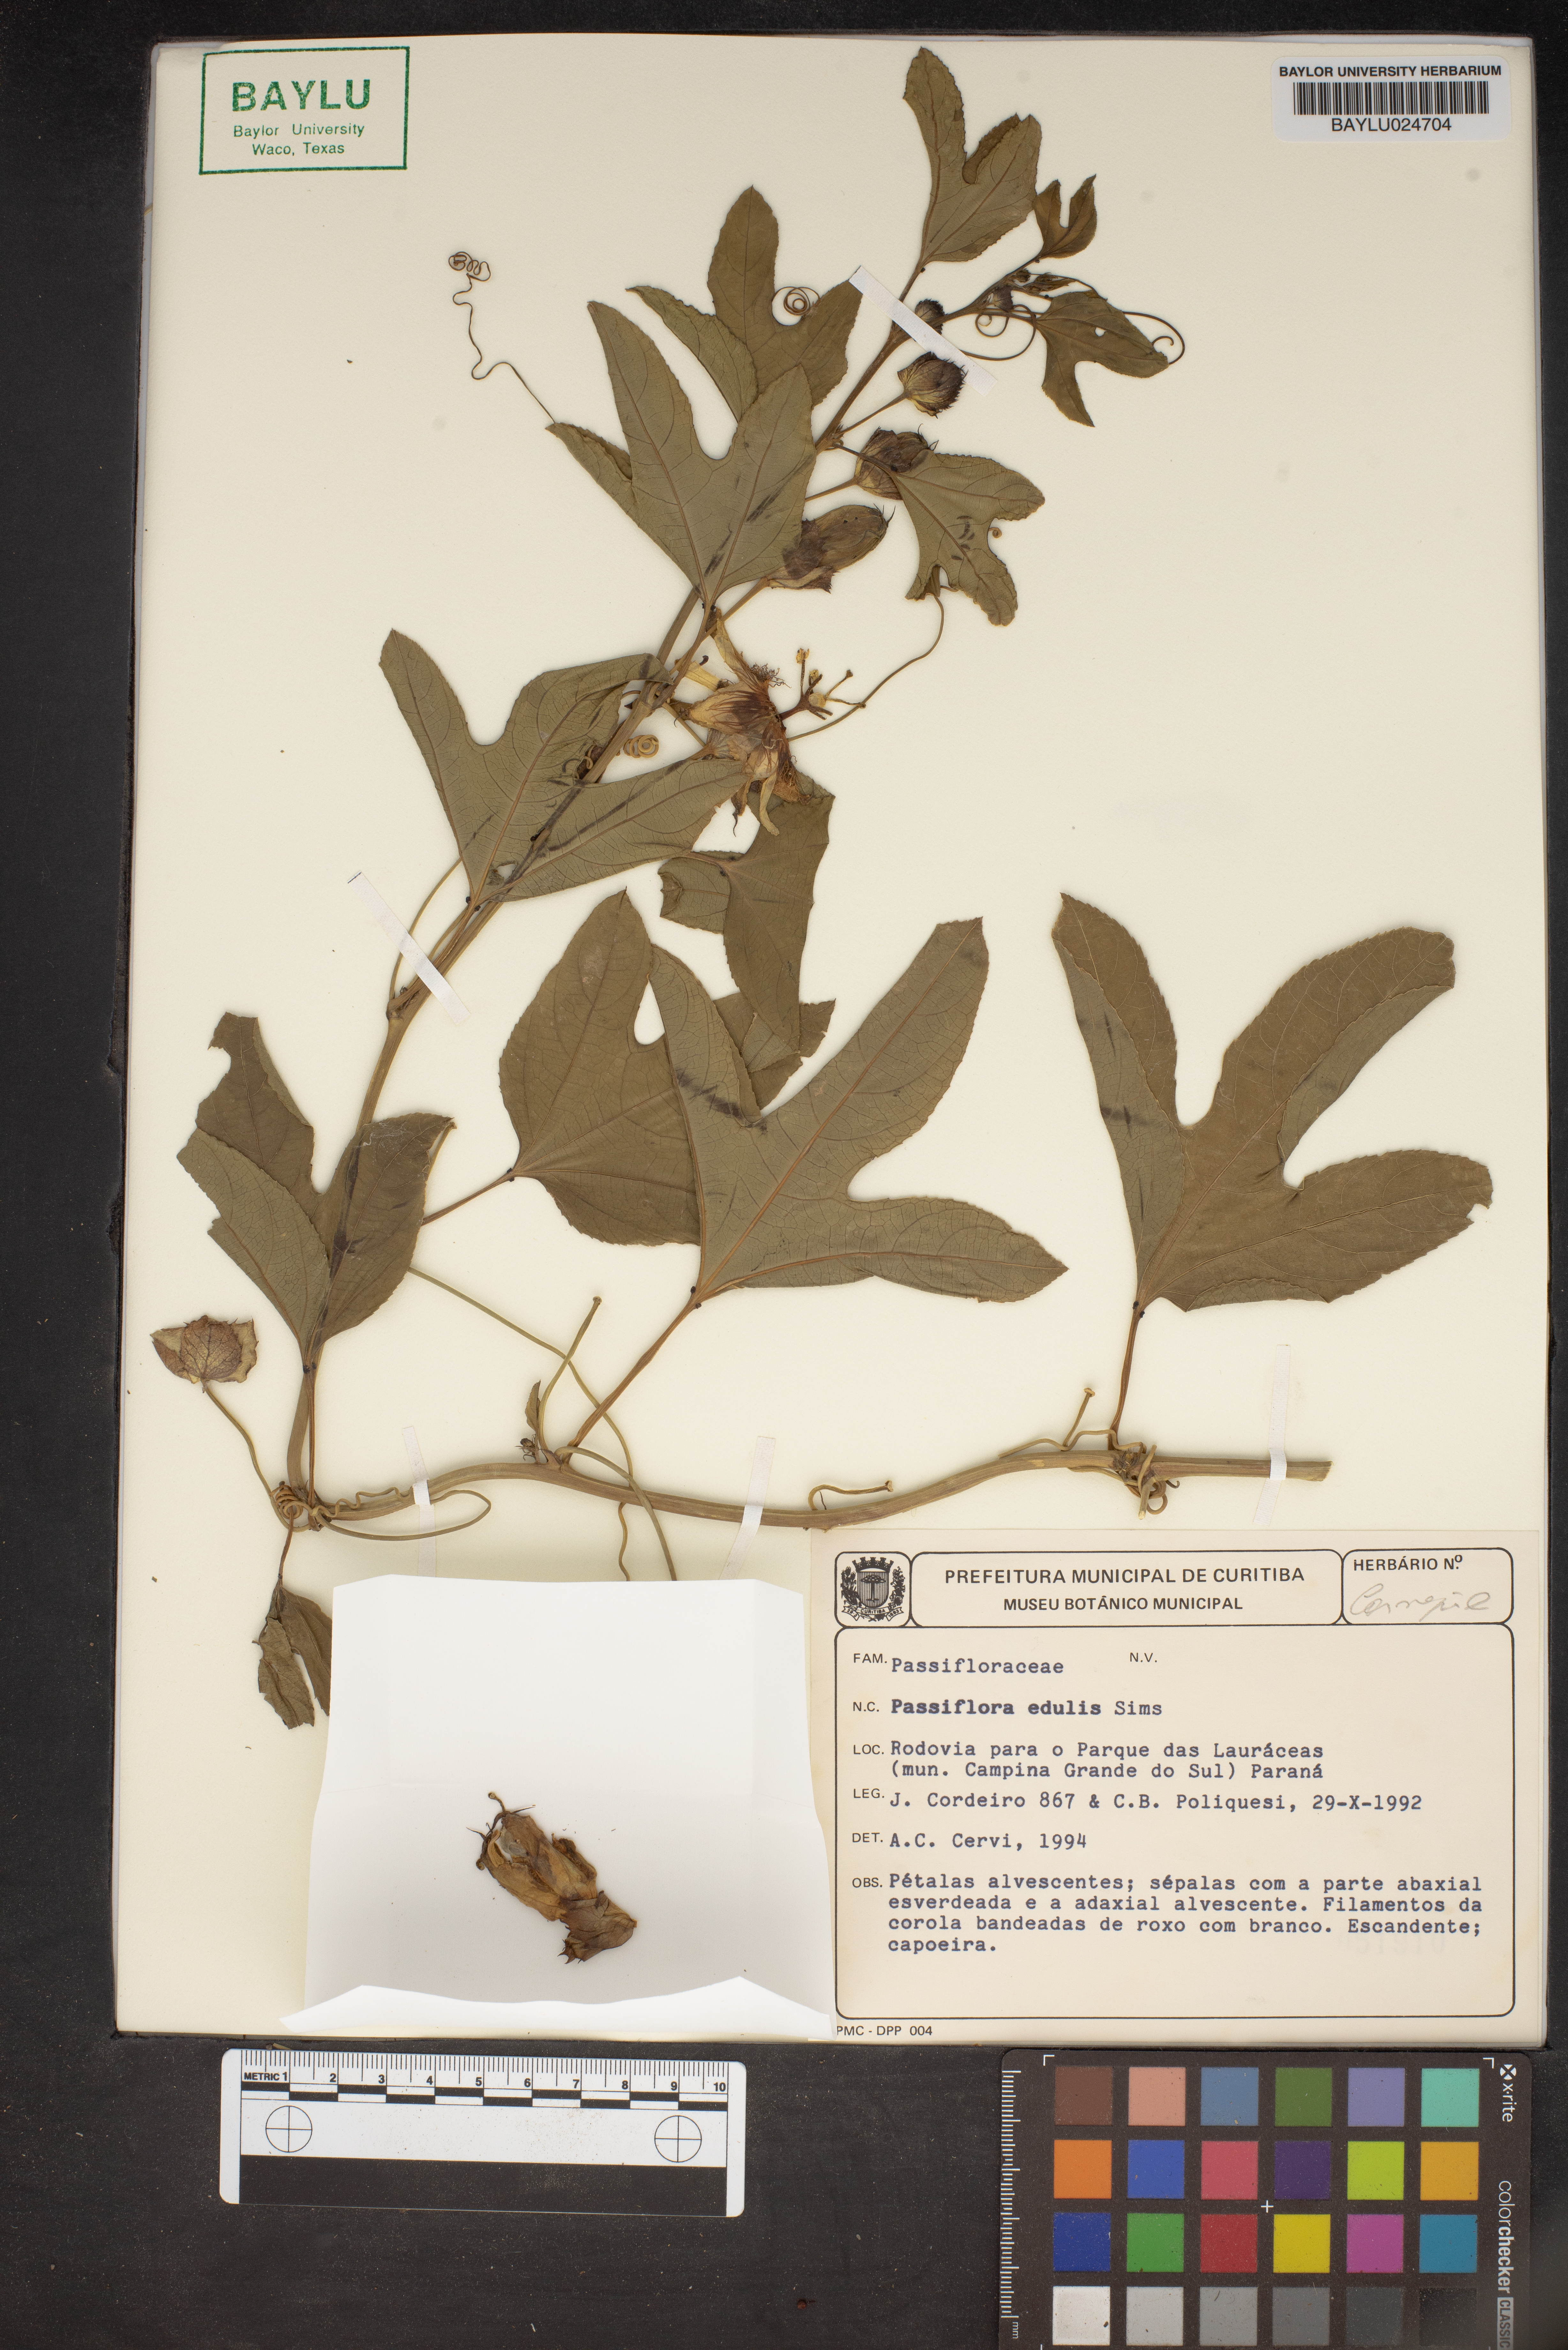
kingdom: Plantae
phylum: Tracheophyta
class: Magnoliopsida
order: Malpighiales
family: Passifloraceae
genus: Passiflora
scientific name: Passiflora edulis
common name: Purple granadilla
